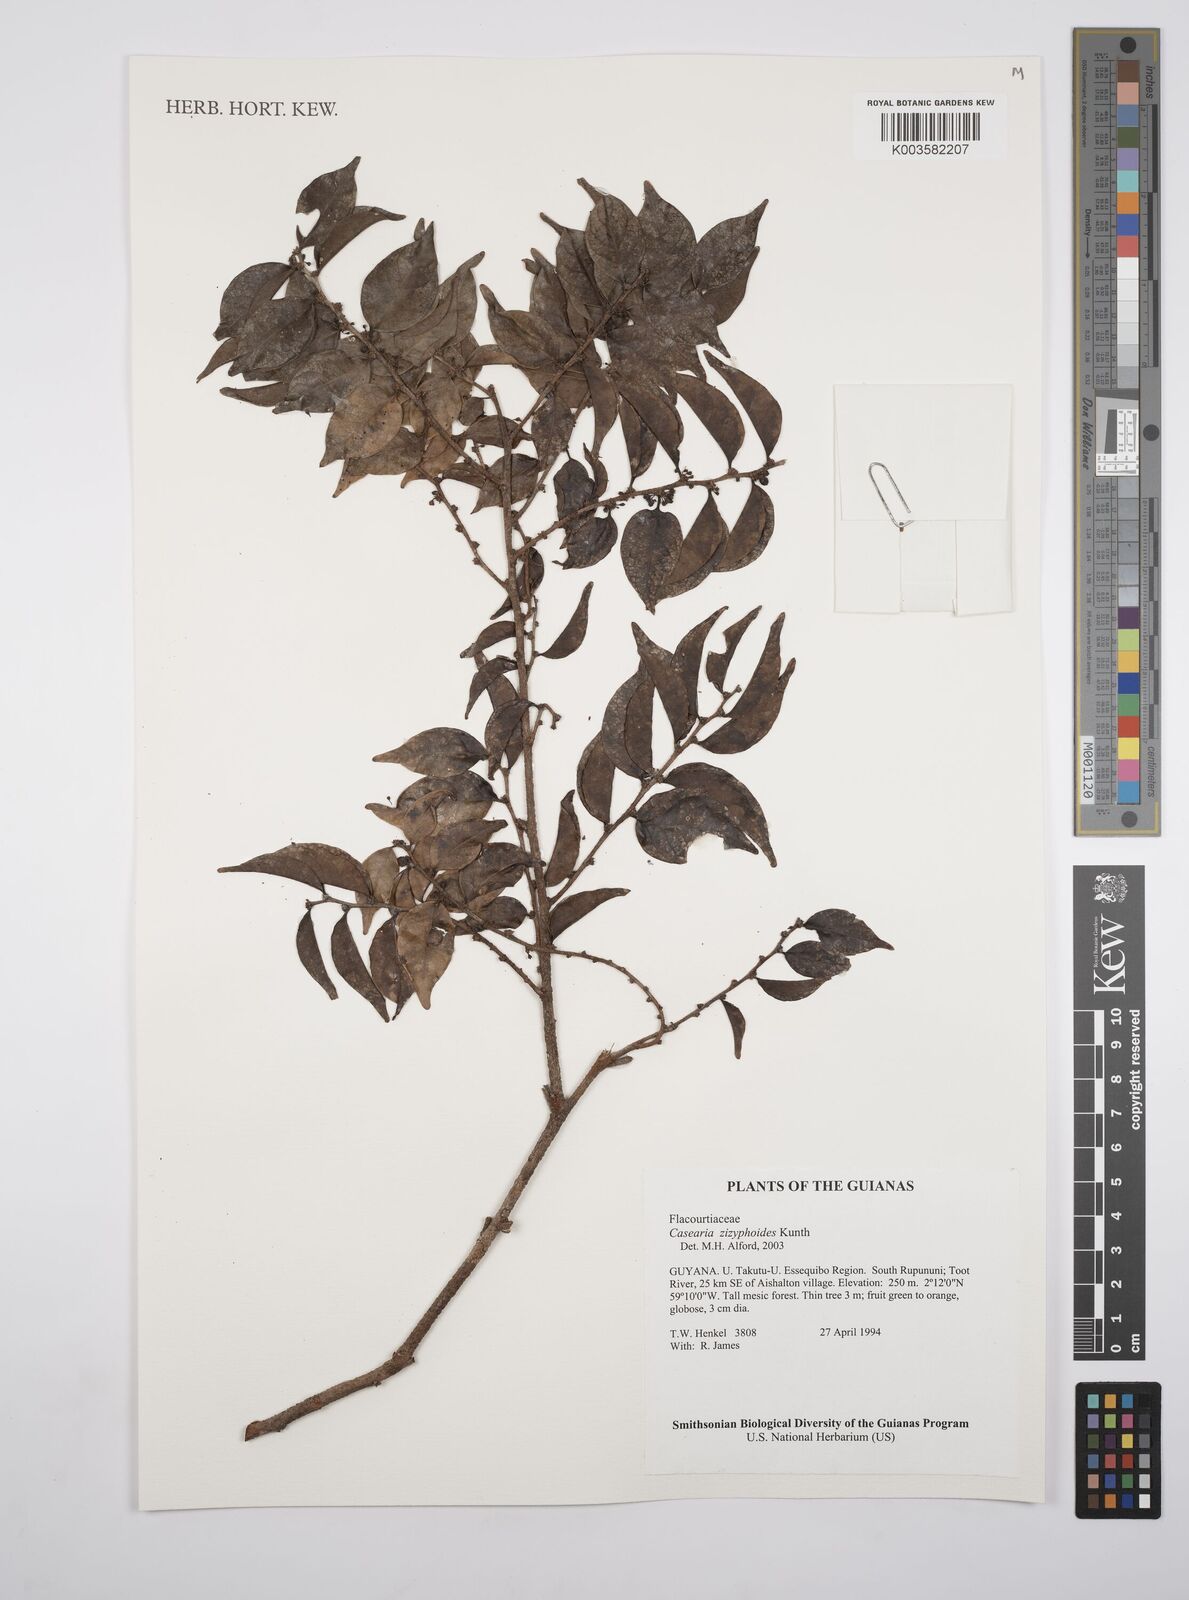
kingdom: Plantae
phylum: Tracheophyta
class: Magnoliopsida
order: Malpighiales
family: Salicaceae
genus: Casearia
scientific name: Casearia zizyphoides
